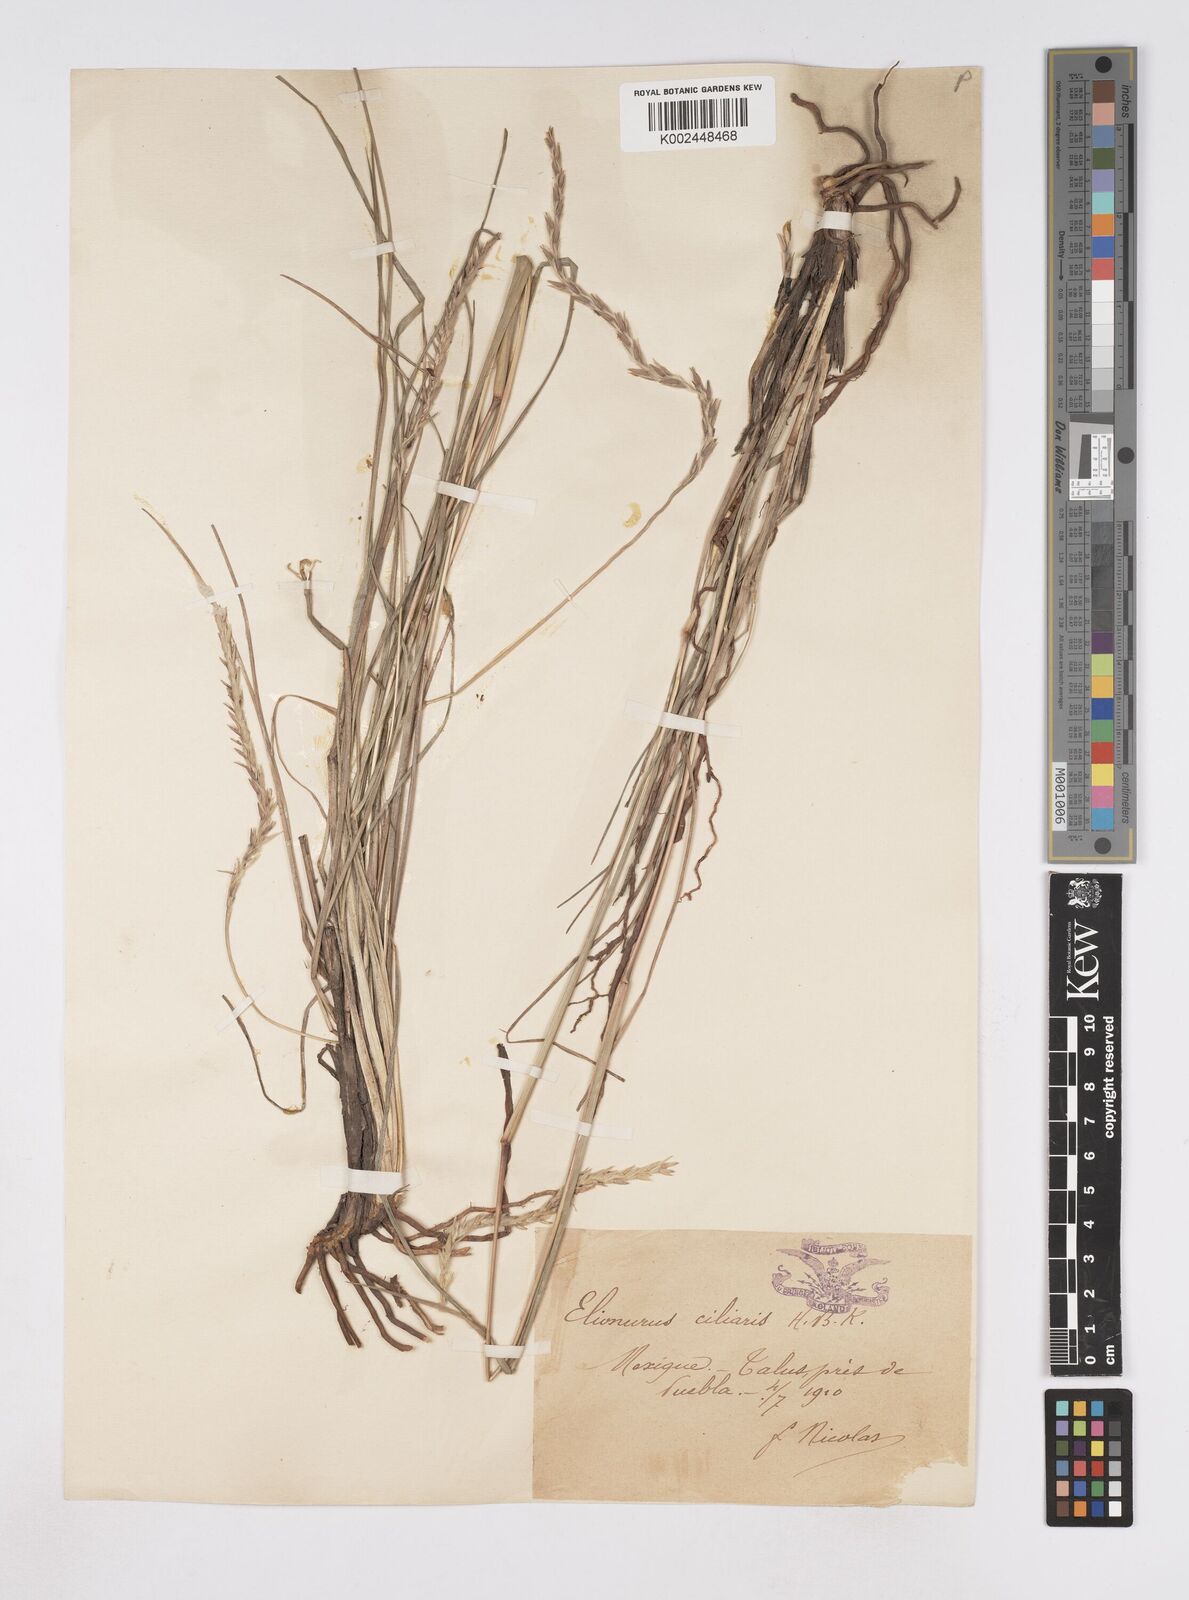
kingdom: Plantae
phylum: Tracheophyta
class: Liliopsida
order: Poales
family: Poaceae
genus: Elionurus
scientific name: Elionurus ciliaris
